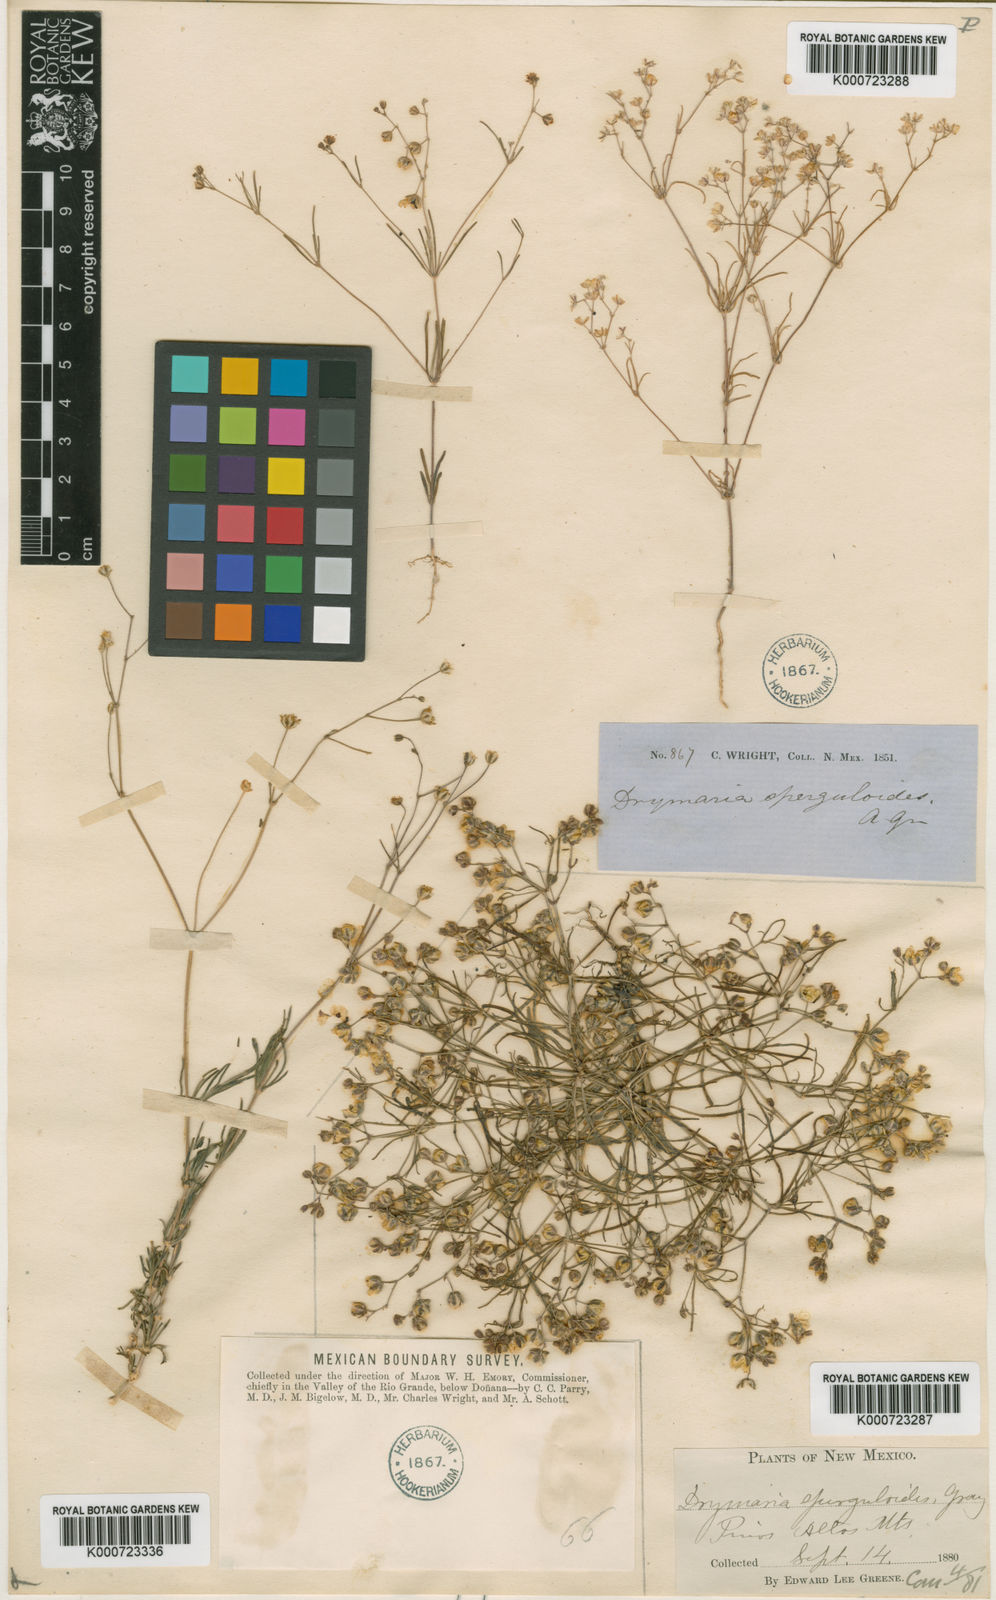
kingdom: Plantae
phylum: Tracheophyta
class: Magnoliopsida
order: Caryophyllales
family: Caryophyllaceae
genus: Drymaria
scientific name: Drymaria molluginea
